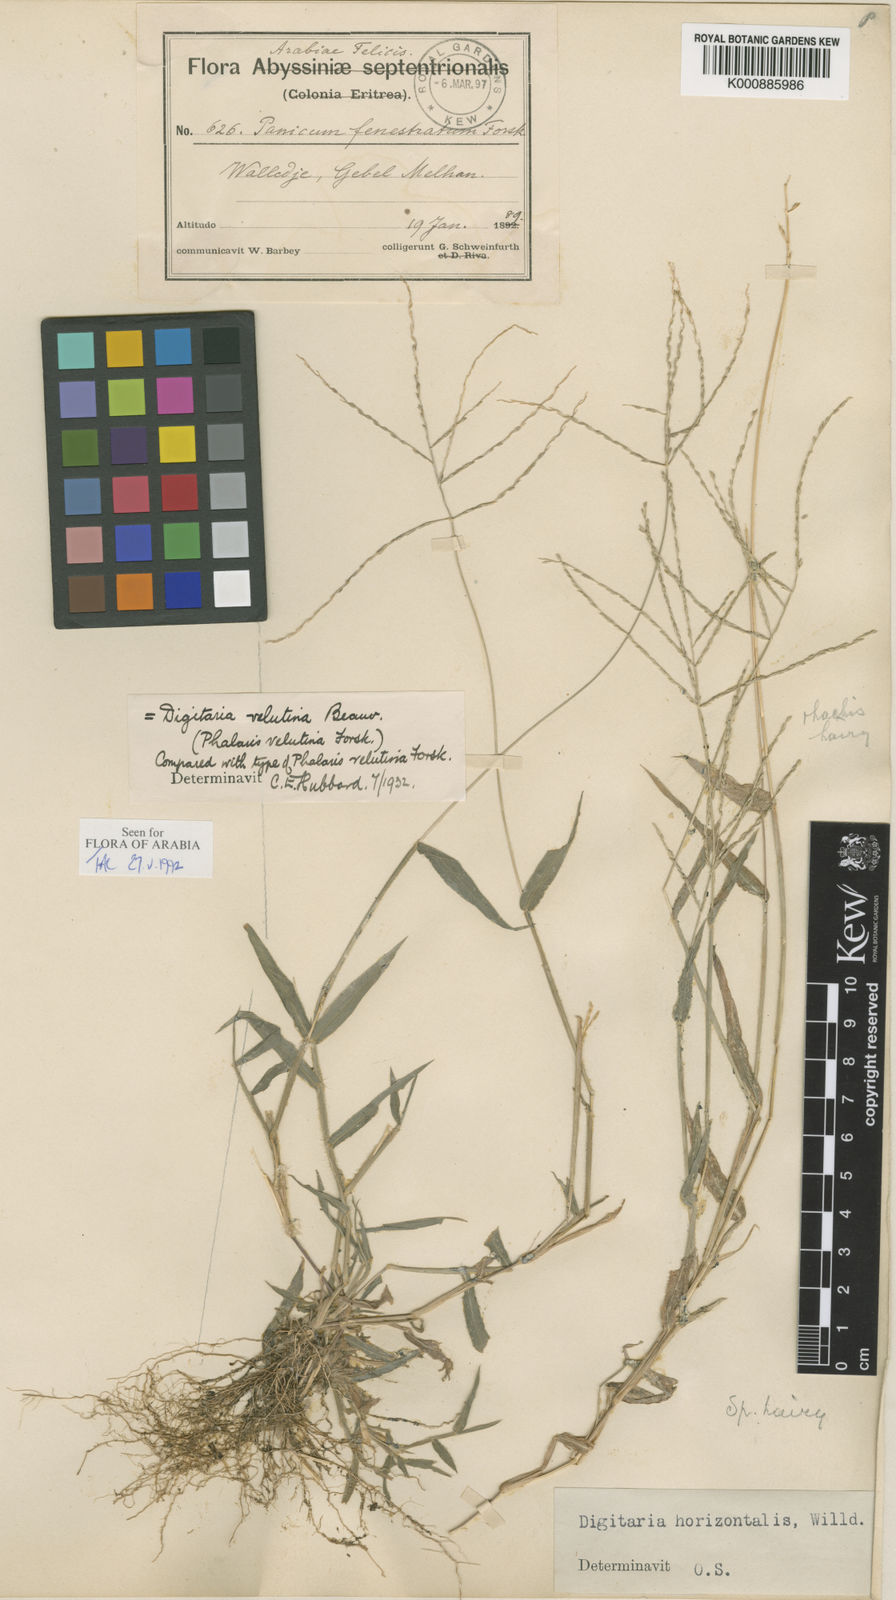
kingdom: Plantae
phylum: Tracheophyta
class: Liliopsida
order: Poales
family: Poaceae
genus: Digitaria
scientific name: Digitaria velutina
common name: Long-plume finger grass
